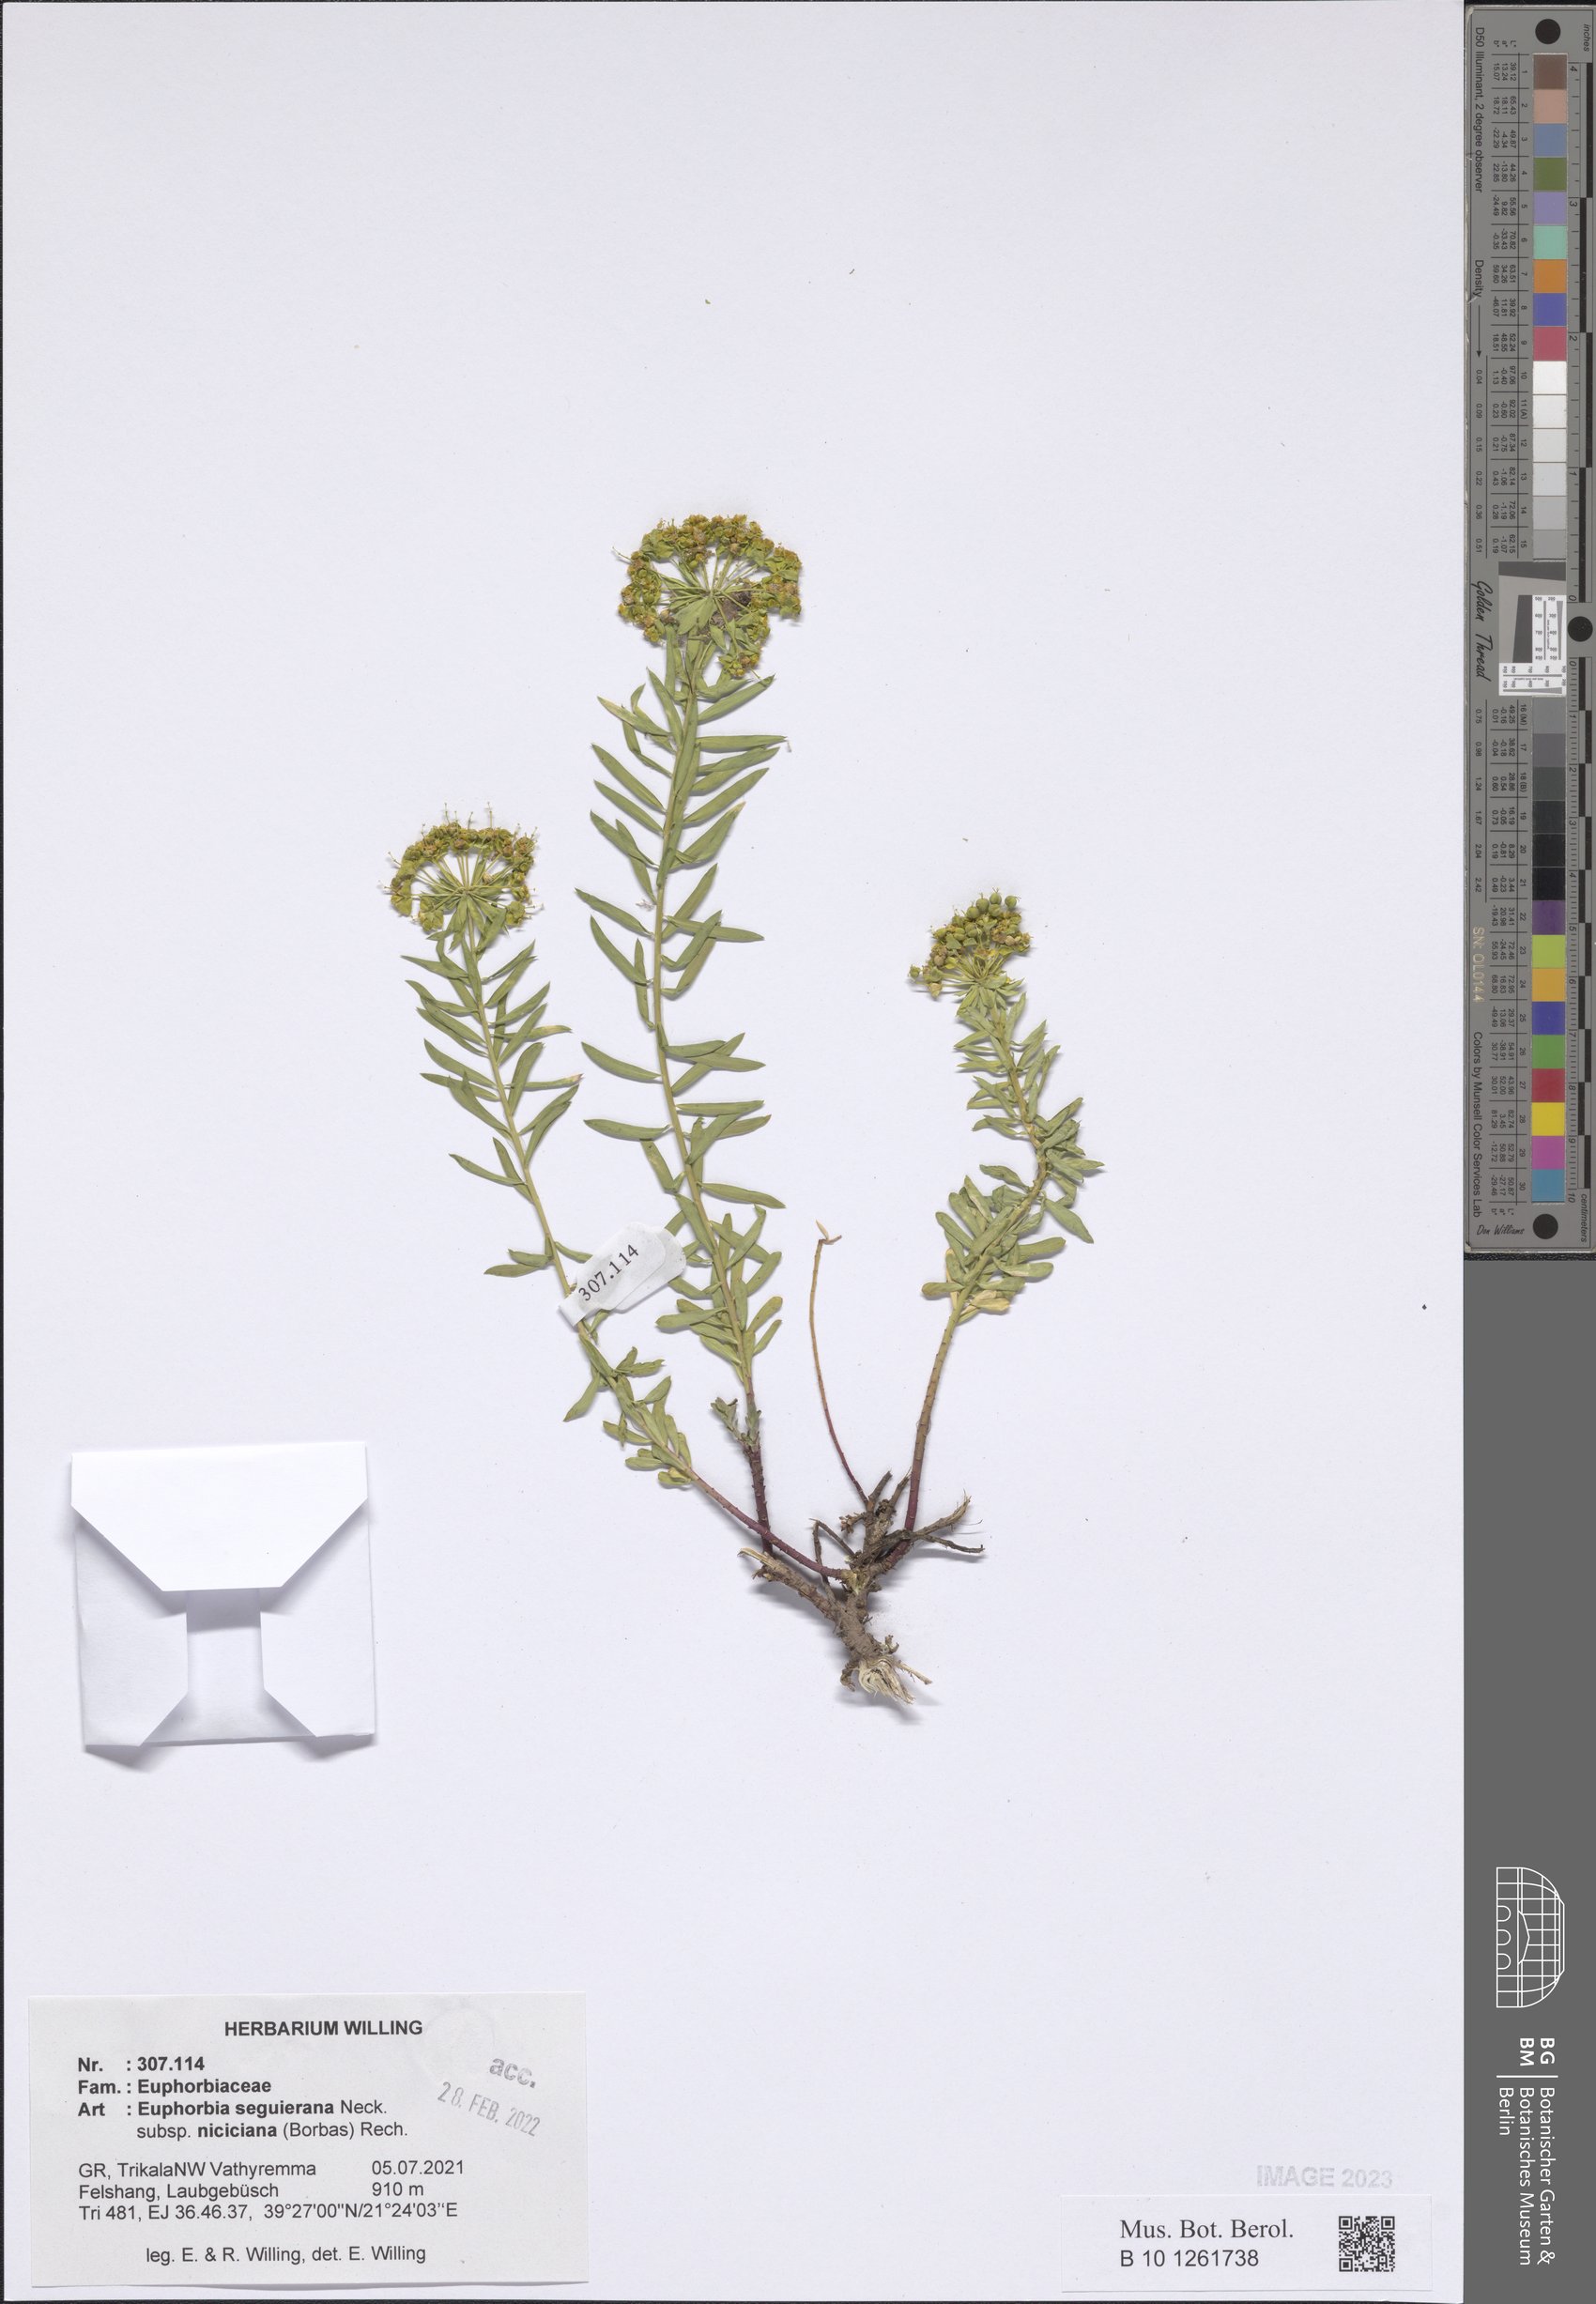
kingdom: Plantae
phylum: Tracheophyta
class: Magnoliopsida
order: Malpighiales
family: Euphorbiaceae
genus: Euphorbia
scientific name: Euphorbia seguieriana
